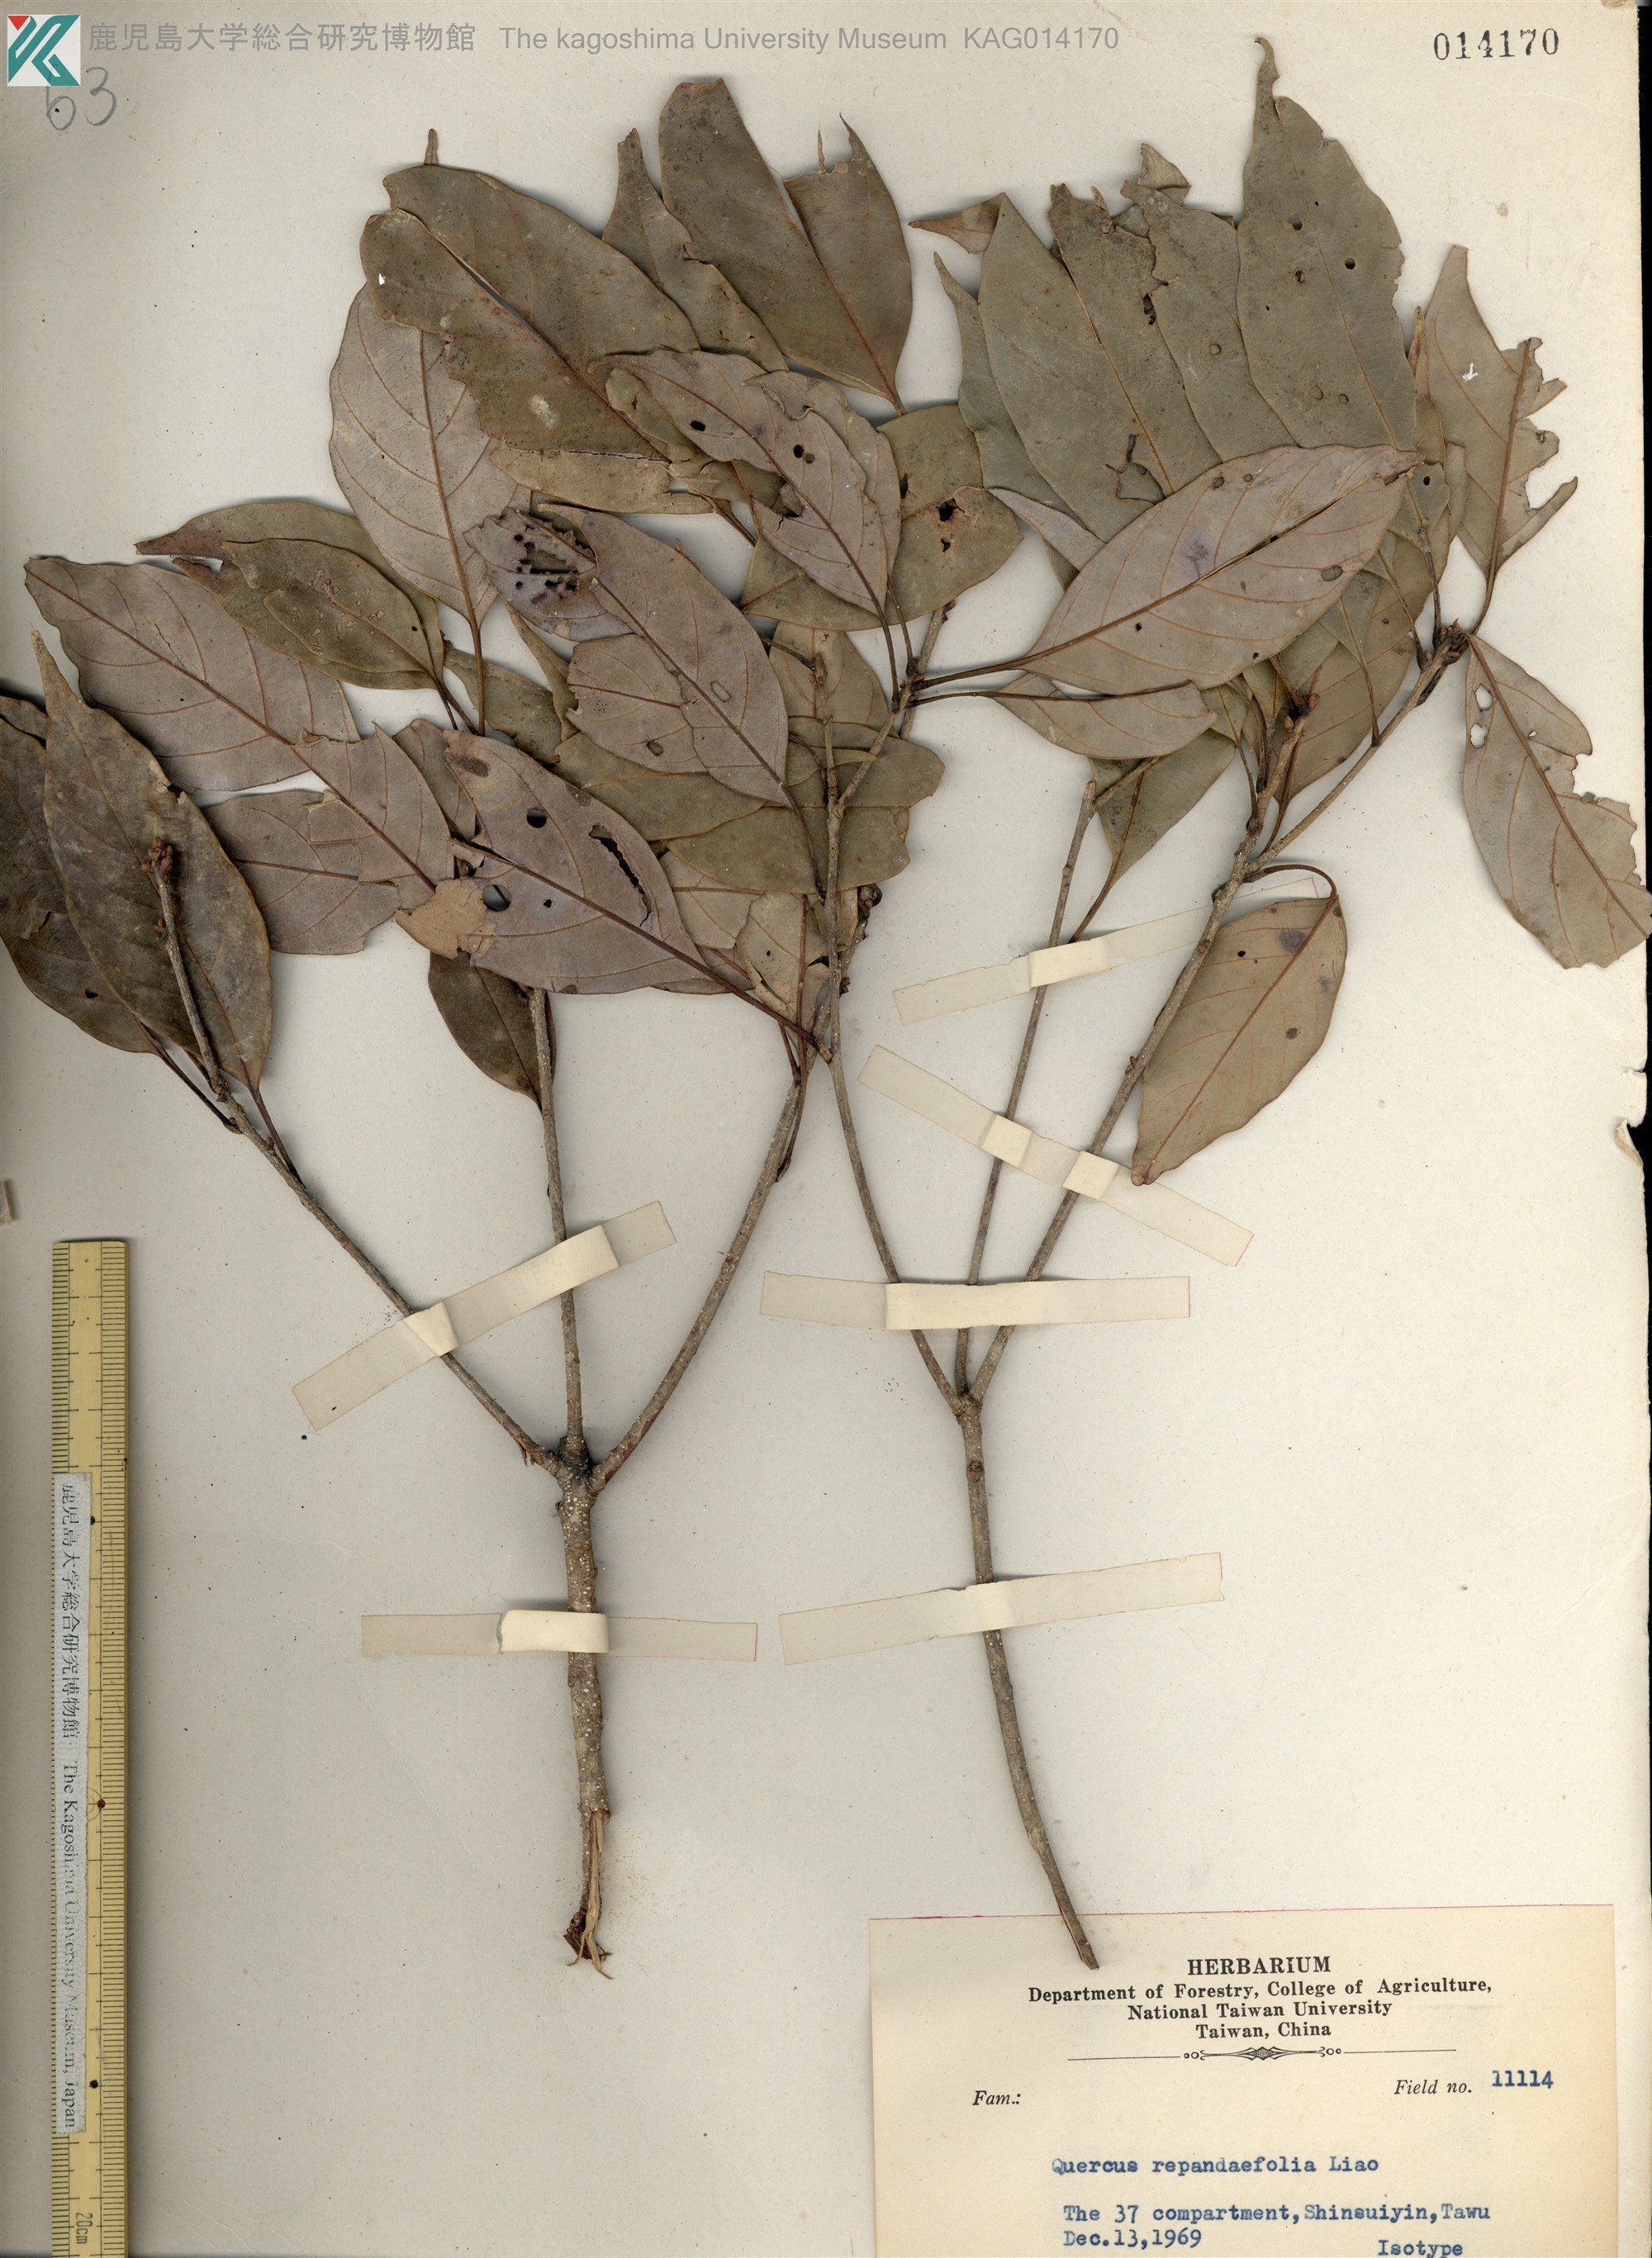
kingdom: Plantae
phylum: Tracheophyta
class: Magnoliopsida
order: Fagales
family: Fagaceae
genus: Quercus
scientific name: Quercus glauca
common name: Ring-cup oak
